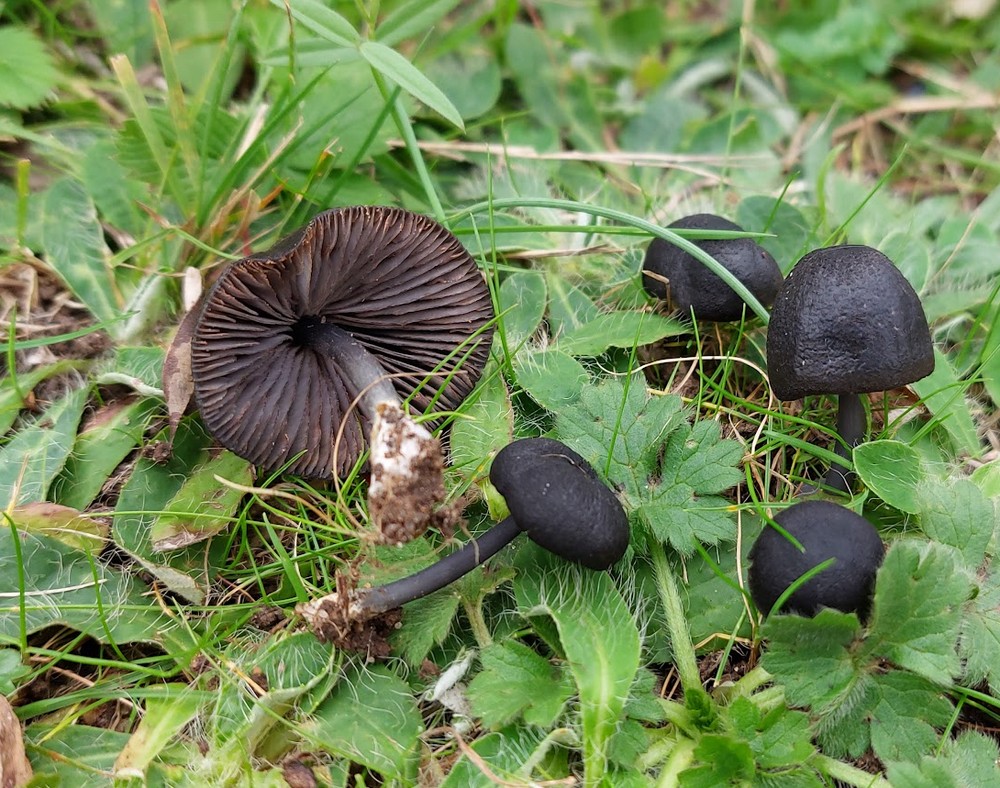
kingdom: Fungi
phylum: Basidiomycota
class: Agaricomycetes
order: Agaricales
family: Entolomataceae
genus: Entoloma
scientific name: Entoloma
